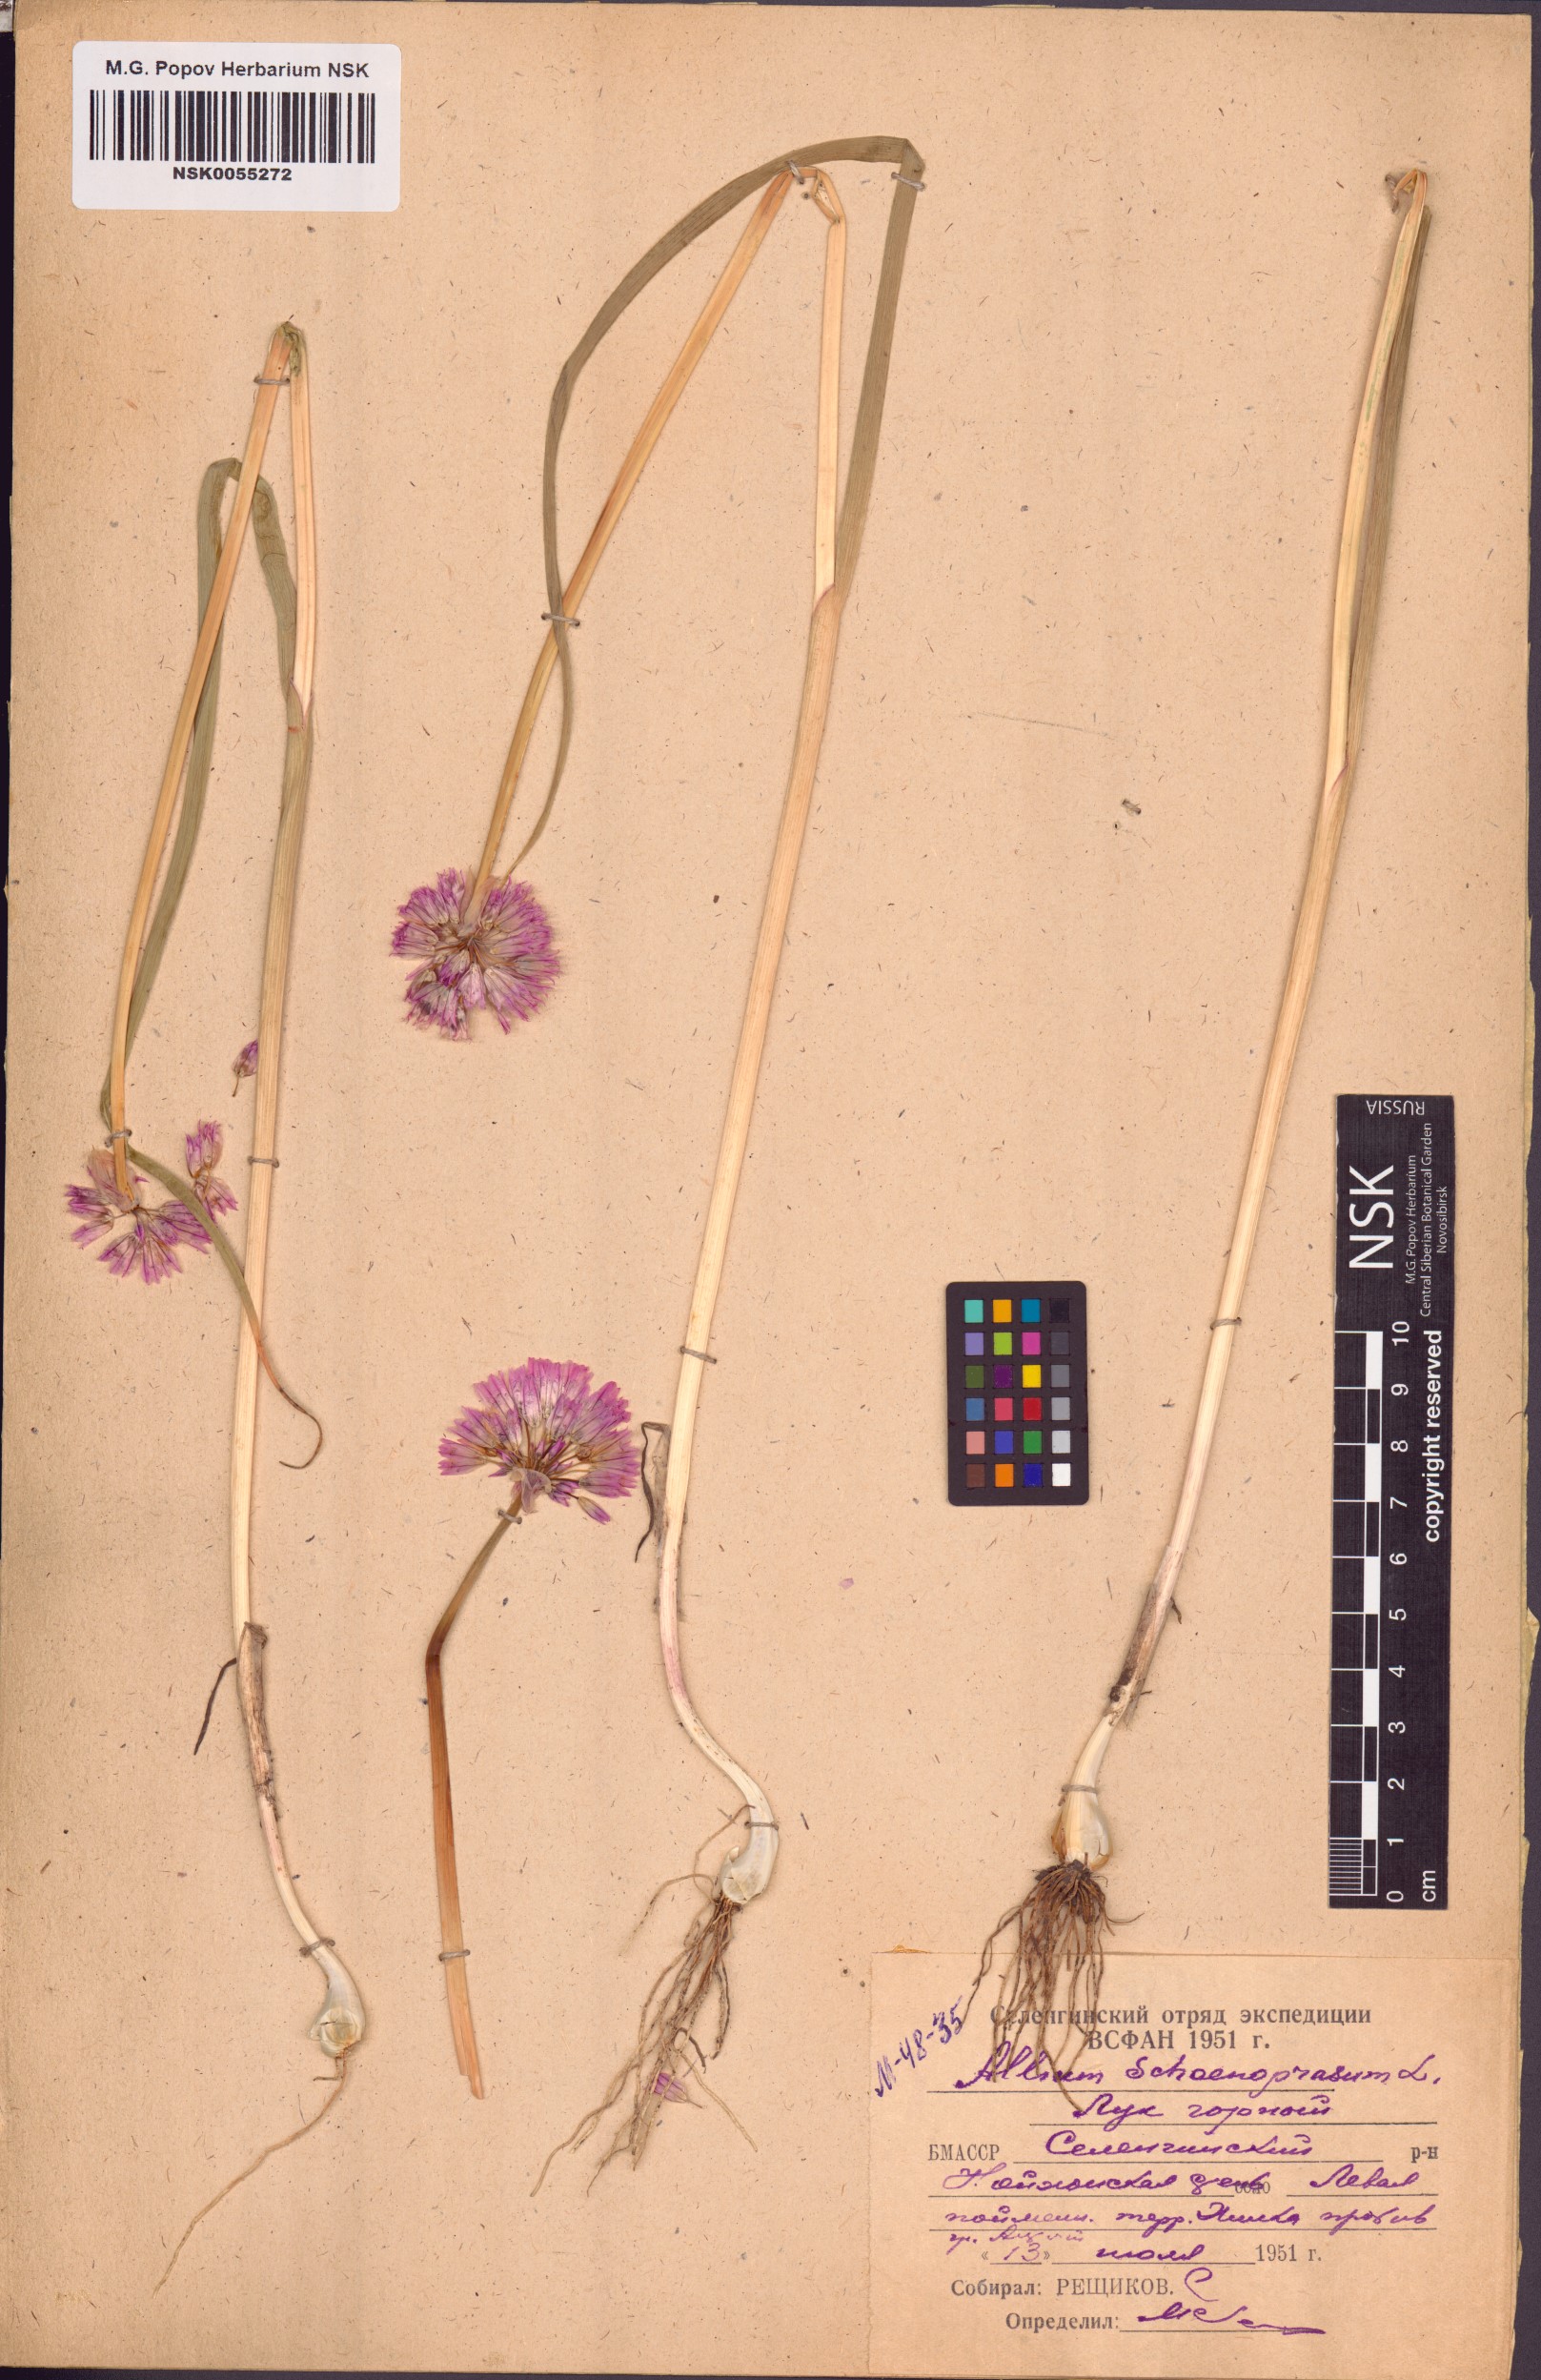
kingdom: Plantae
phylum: Tracheophyta
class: Liliopsida
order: Asparagales
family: Amaryllidaceae
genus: Allium
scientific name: Allium schoenoprasum
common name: Chives
